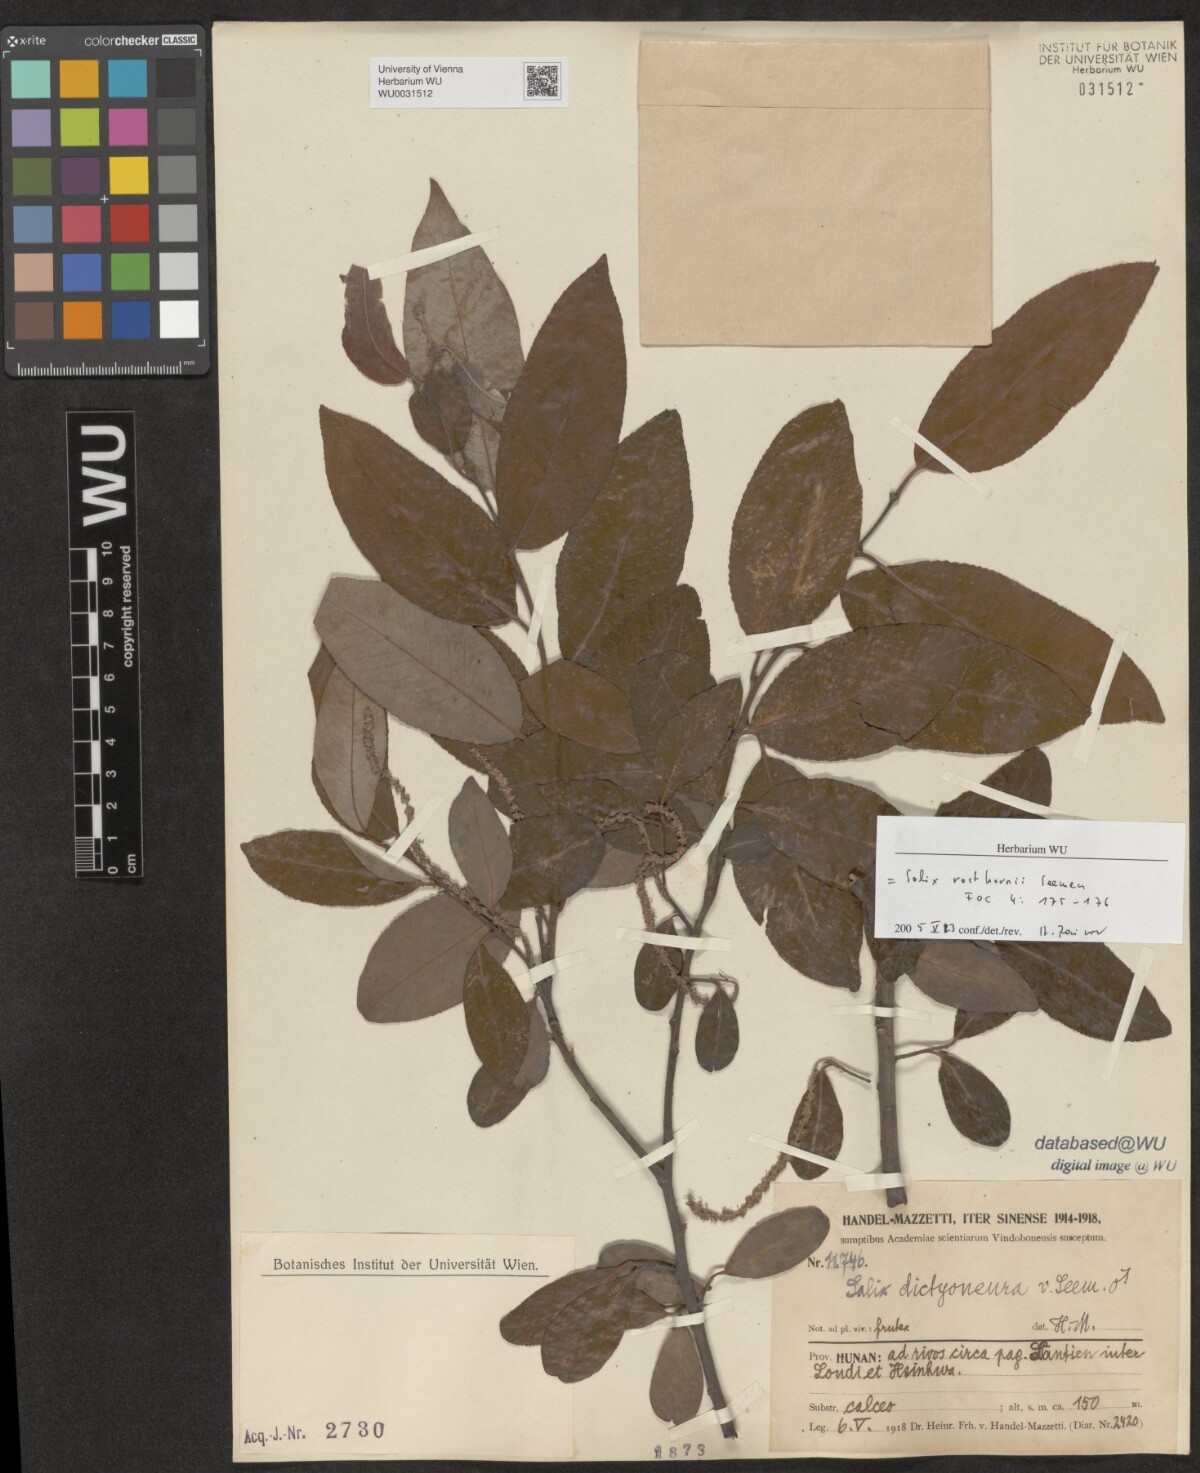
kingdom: Plantae
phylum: Tracheophyta
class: Magnoliopsida
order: Malpighiales
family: Salicaceae
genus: Salix
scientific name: Salix rosthornii
